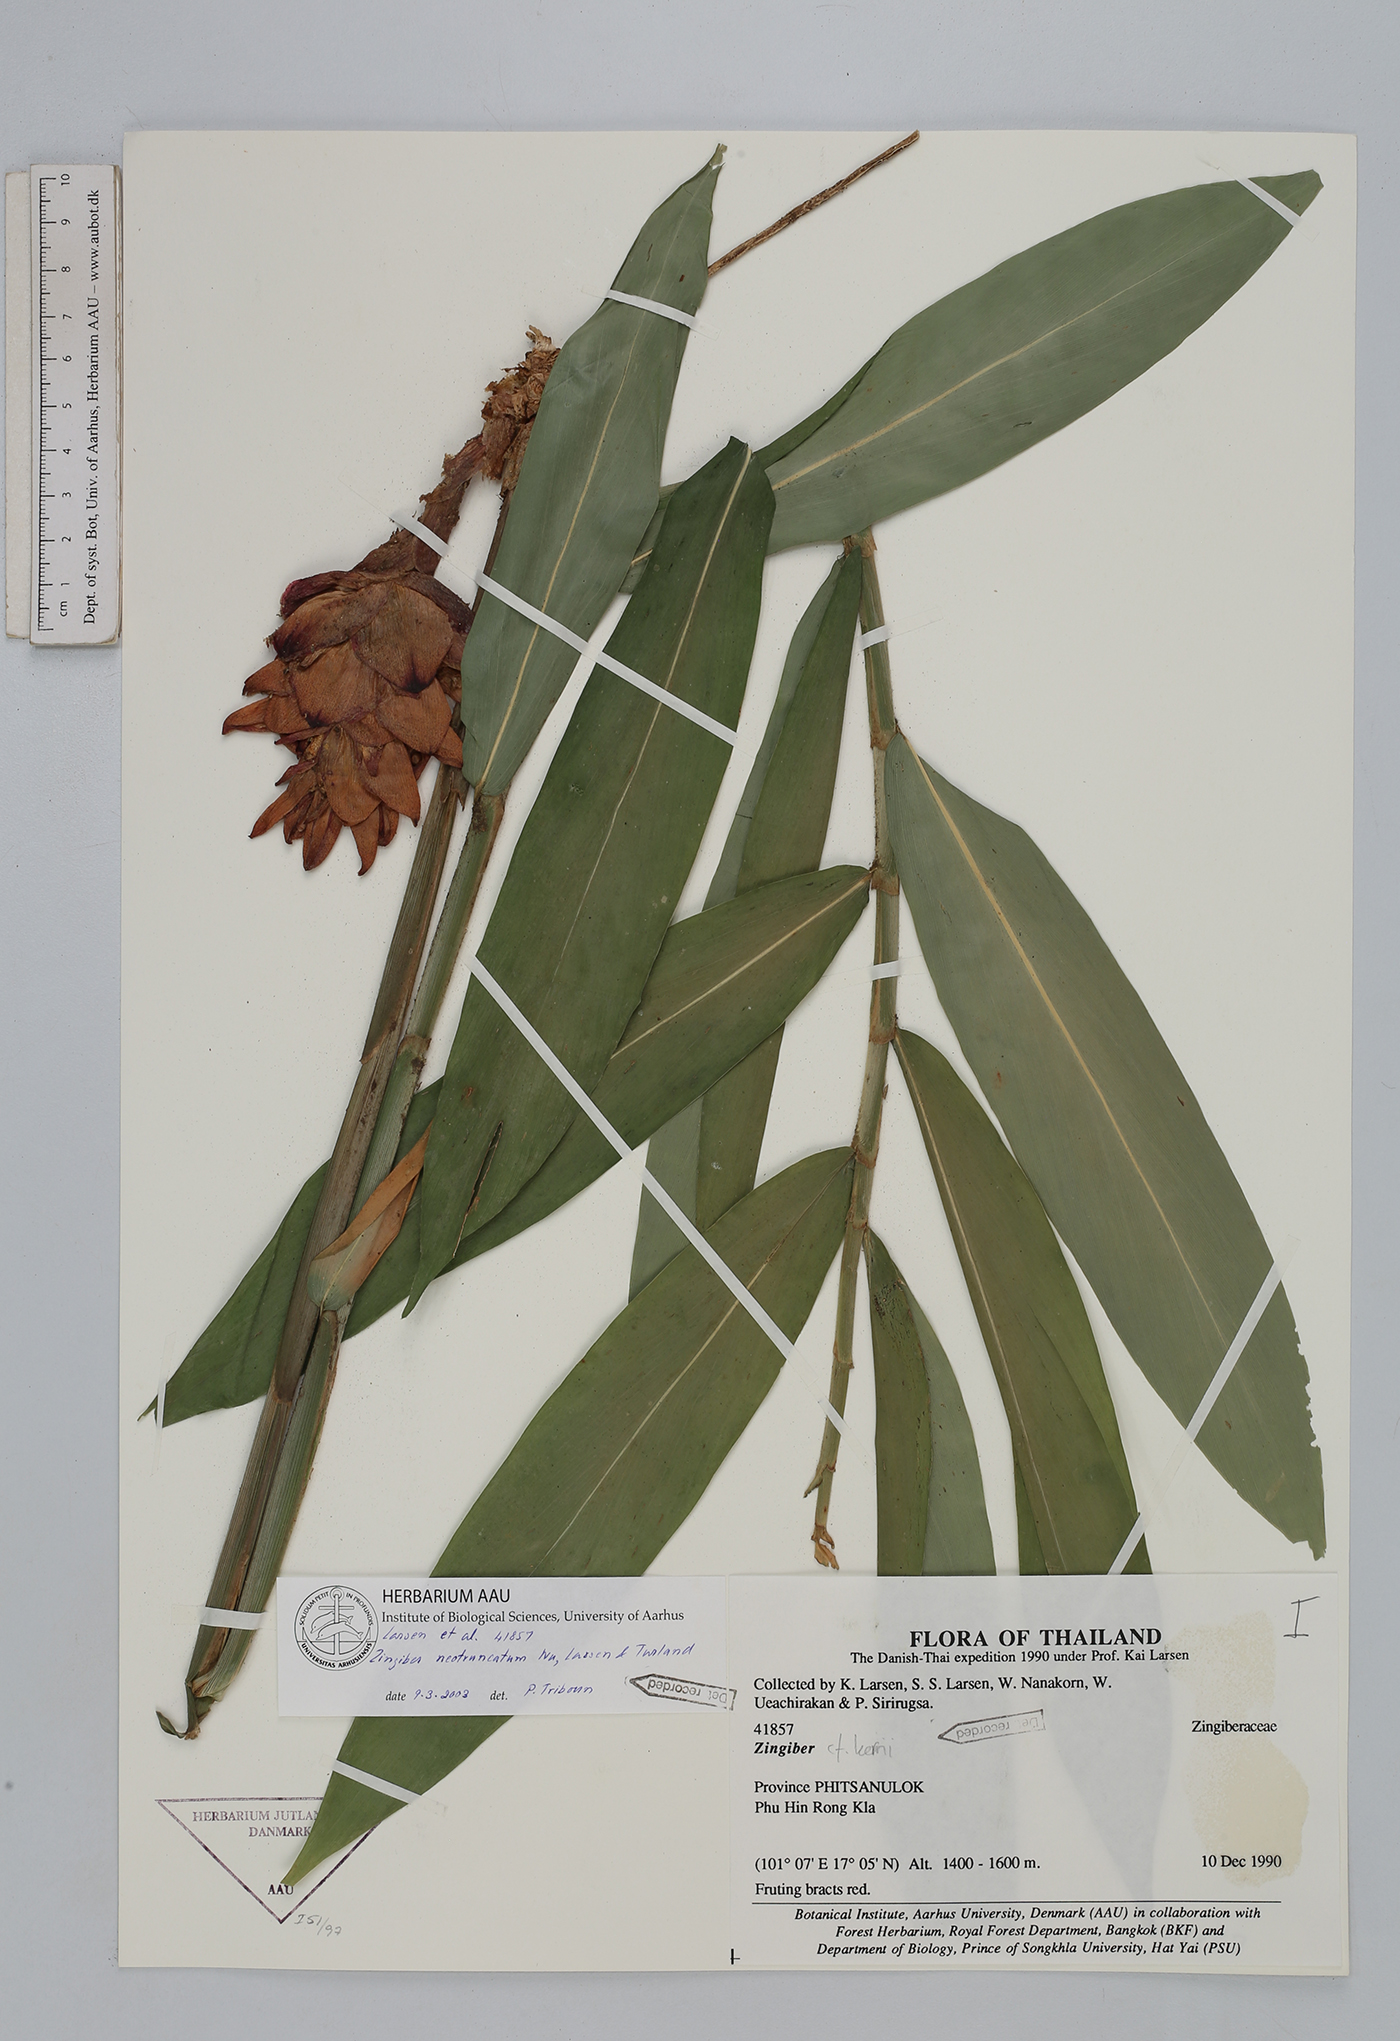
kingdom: Plantae
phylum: Tracheophyta
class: Liliopsida
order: Zingiberales
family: Zingiberaceae
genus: Zingiber
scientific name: Zingiber neotruncatum
